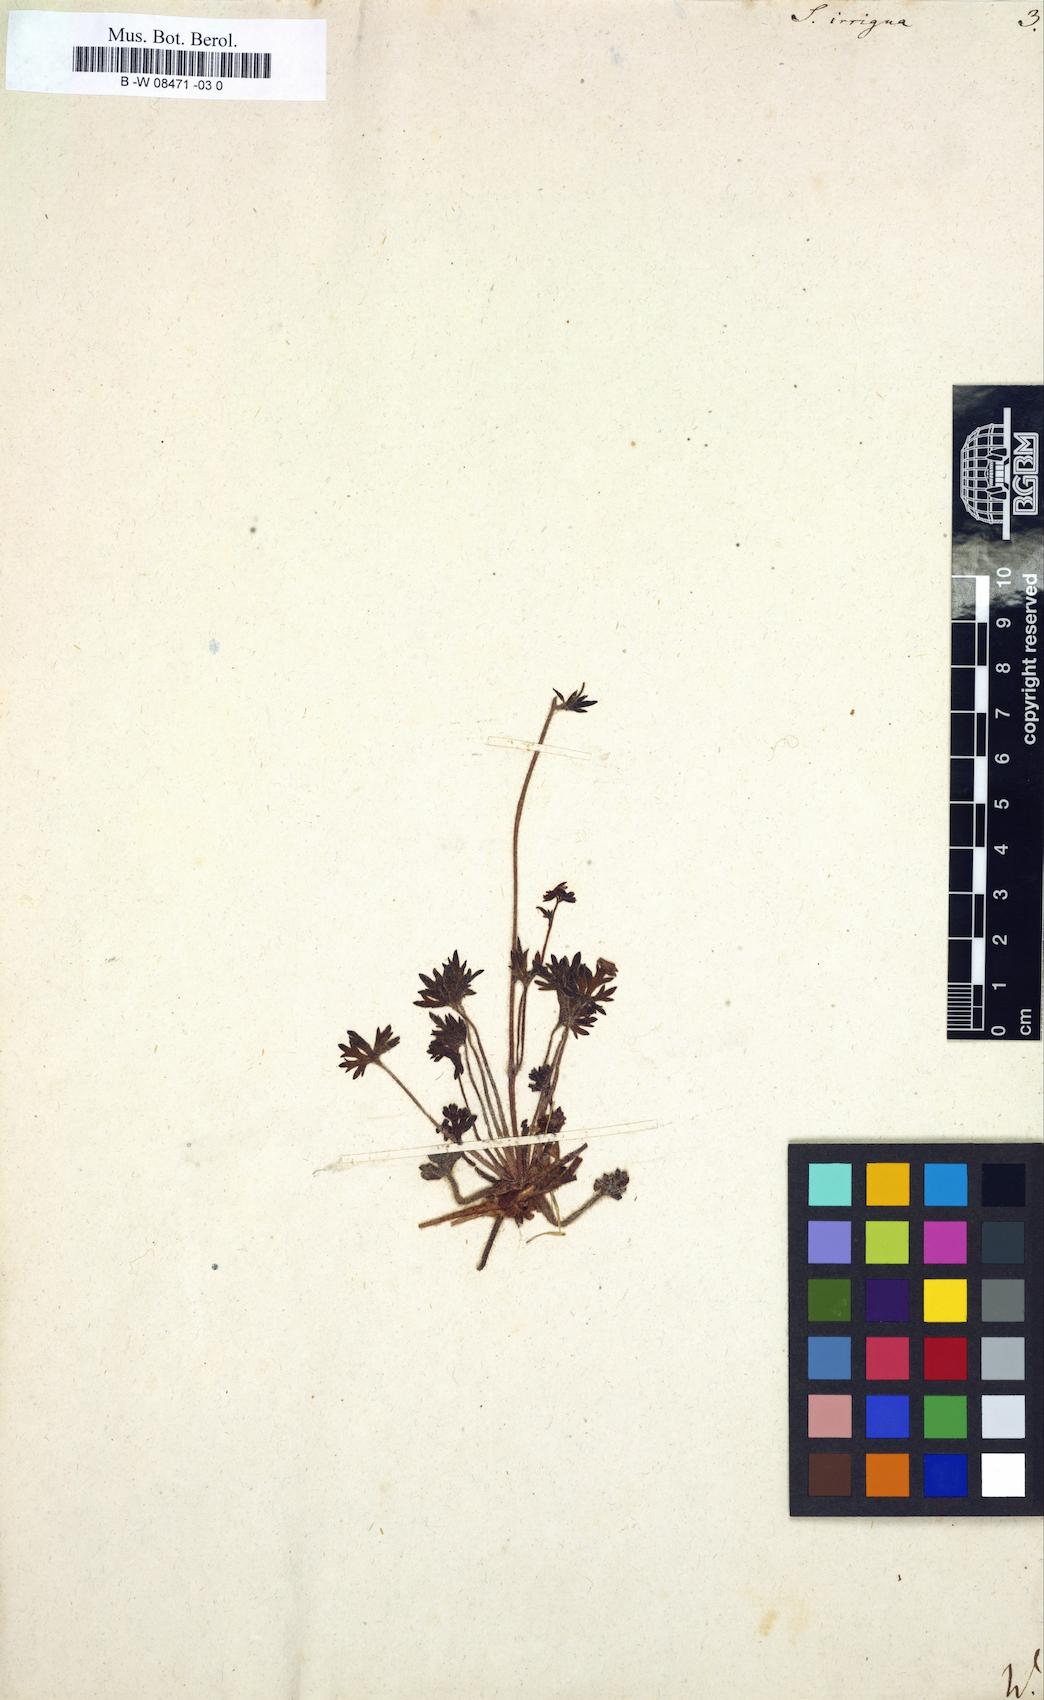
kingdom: Plantae
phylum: Tracheophyta
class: Magnoliopsida
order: Saxifragales
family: Saxifragaceae
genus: Saxifraga
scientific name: Saxifraga irrigua
